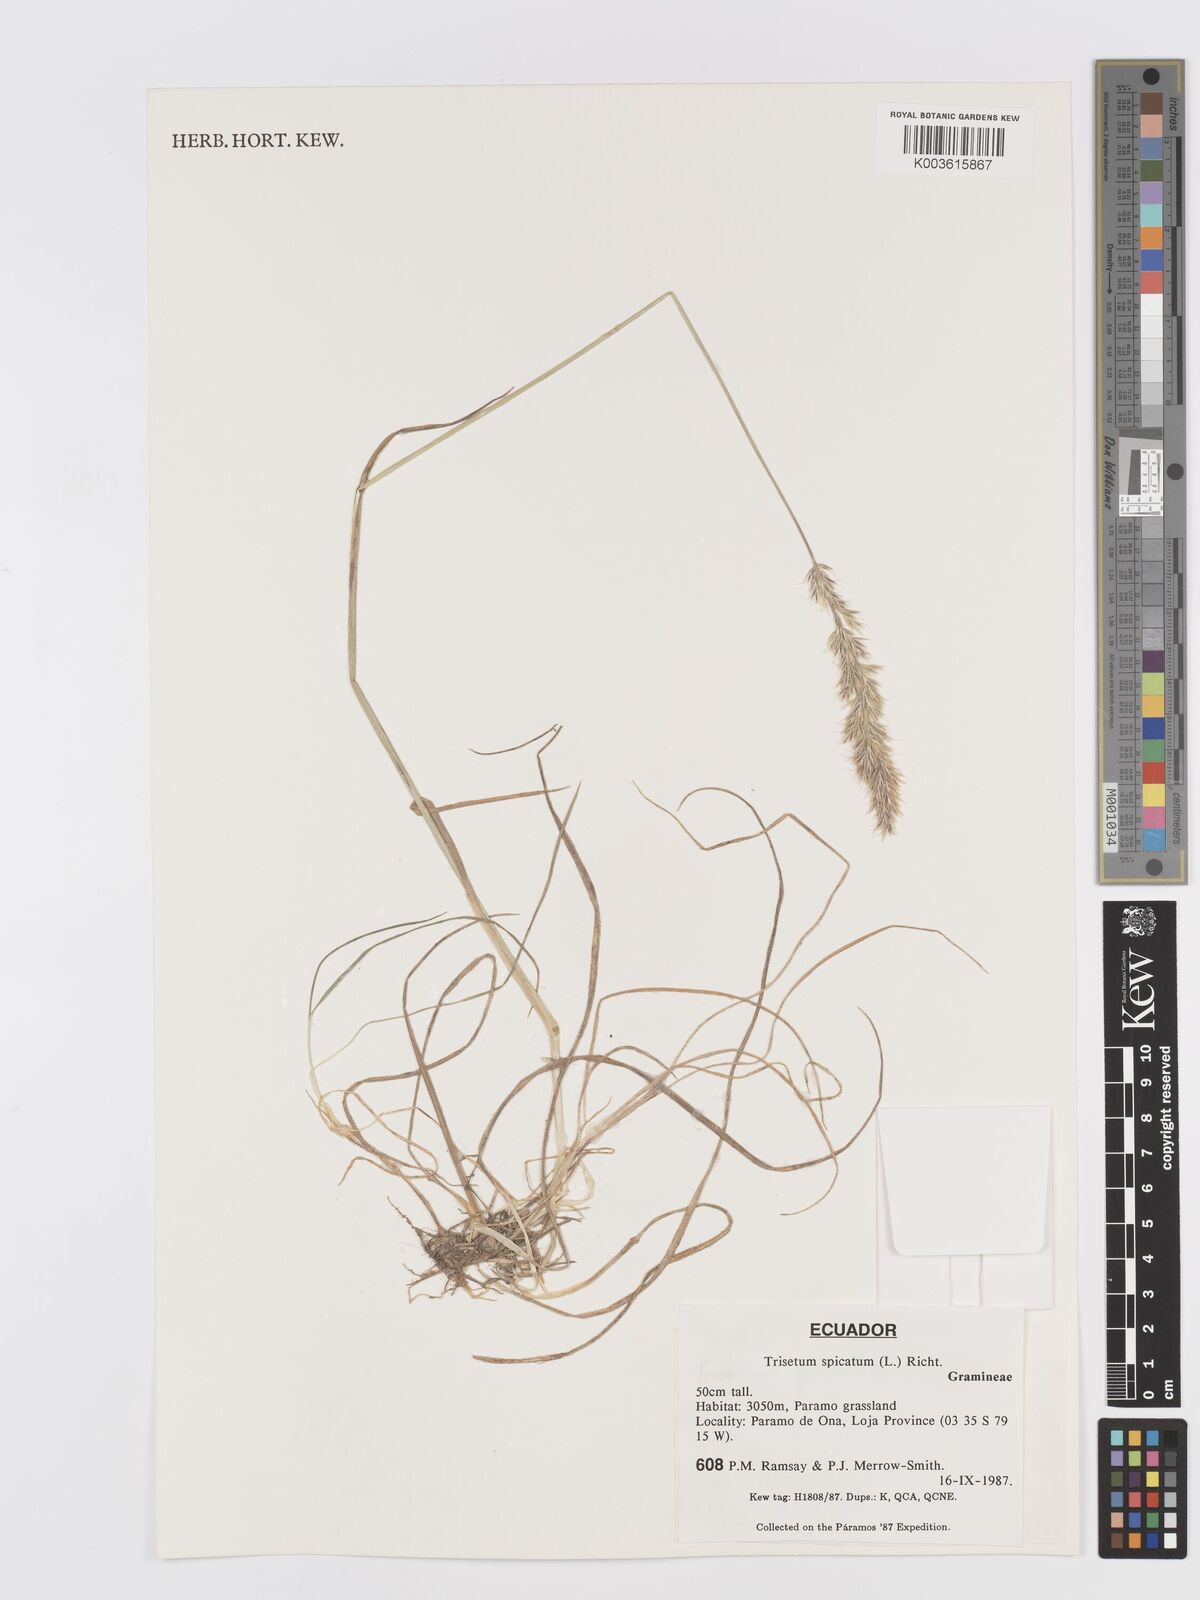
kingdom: Plantae
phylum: Tracheophyta
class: Liliopsida
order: Poales
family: Poaceae
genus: Koeleria
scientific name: Koeleria spicata
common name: Mountain trisetum
